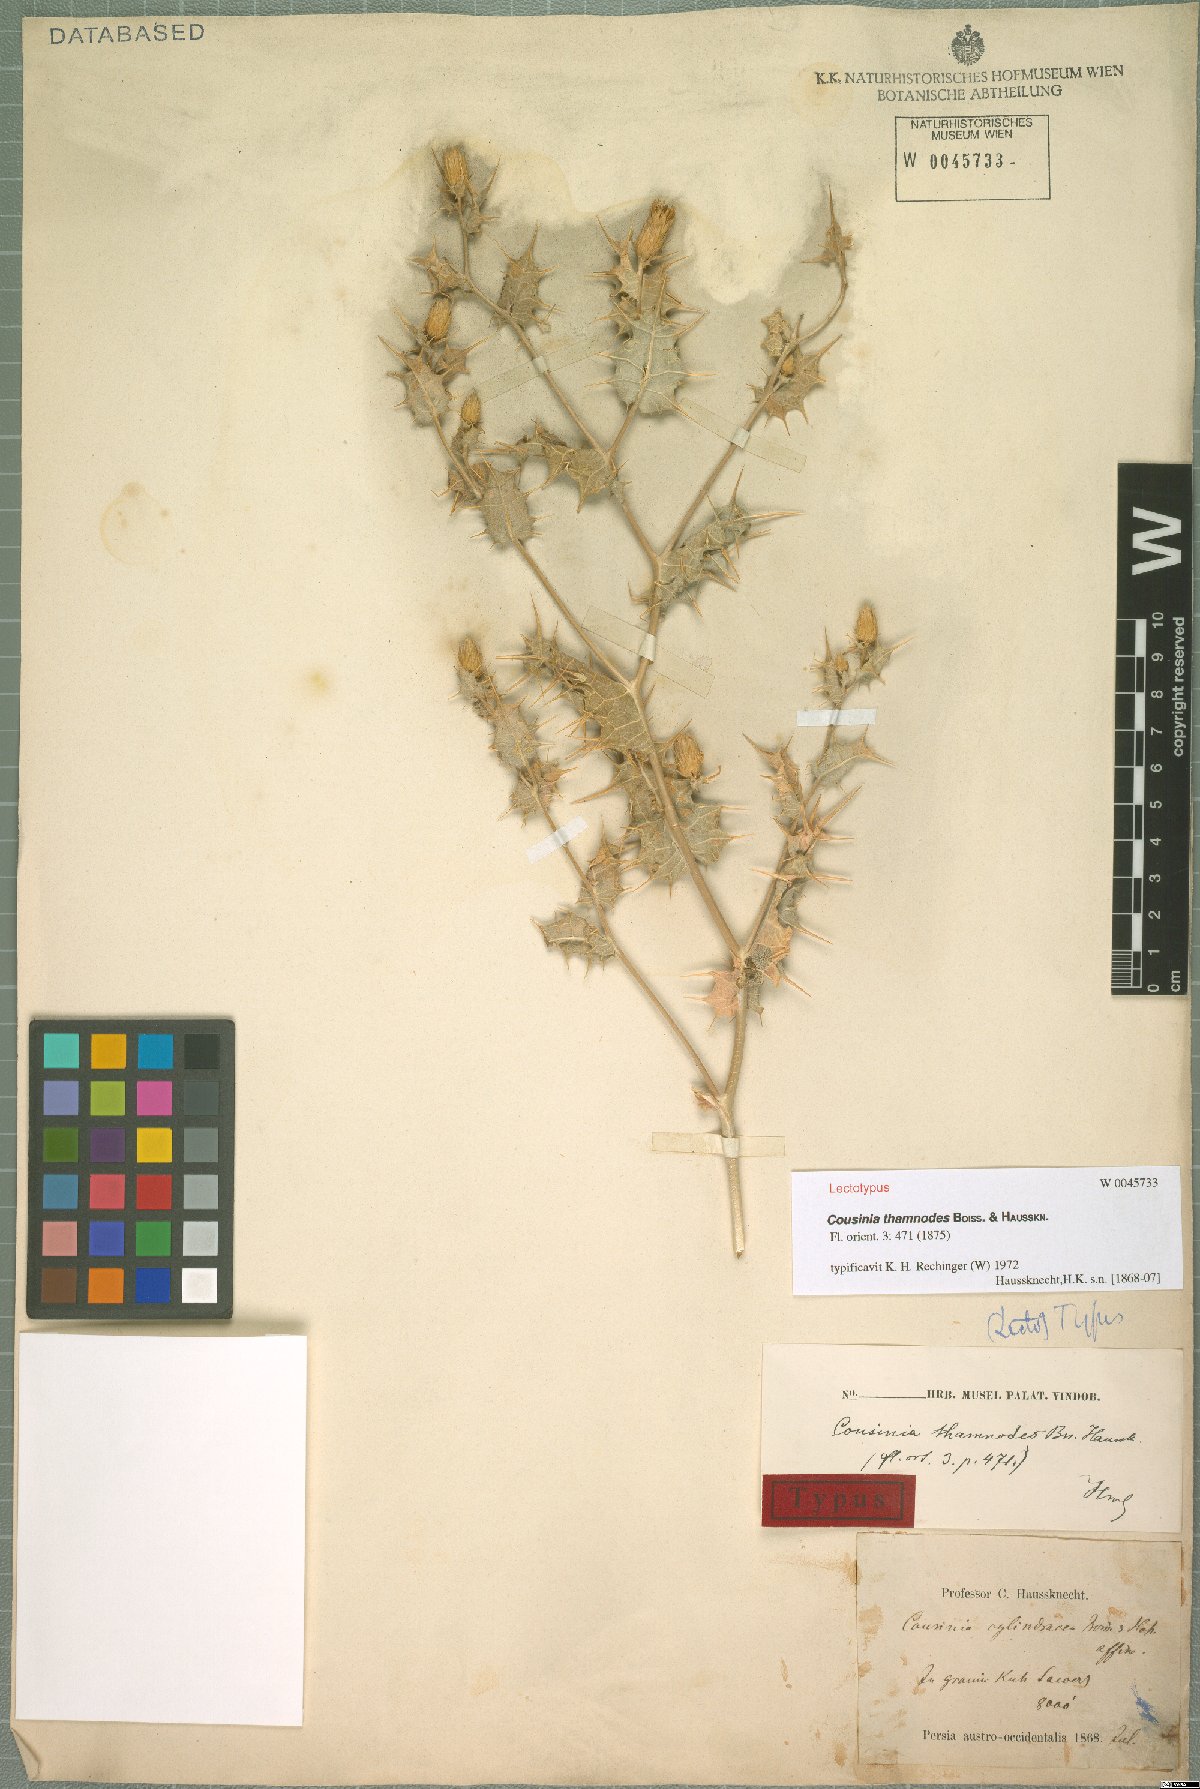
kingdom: Plantae
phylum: Tracheophyta
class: Magnoliopsida
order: Asterales
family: Asteraceae
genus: Cousinia
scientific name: Cousinia thamnodes
